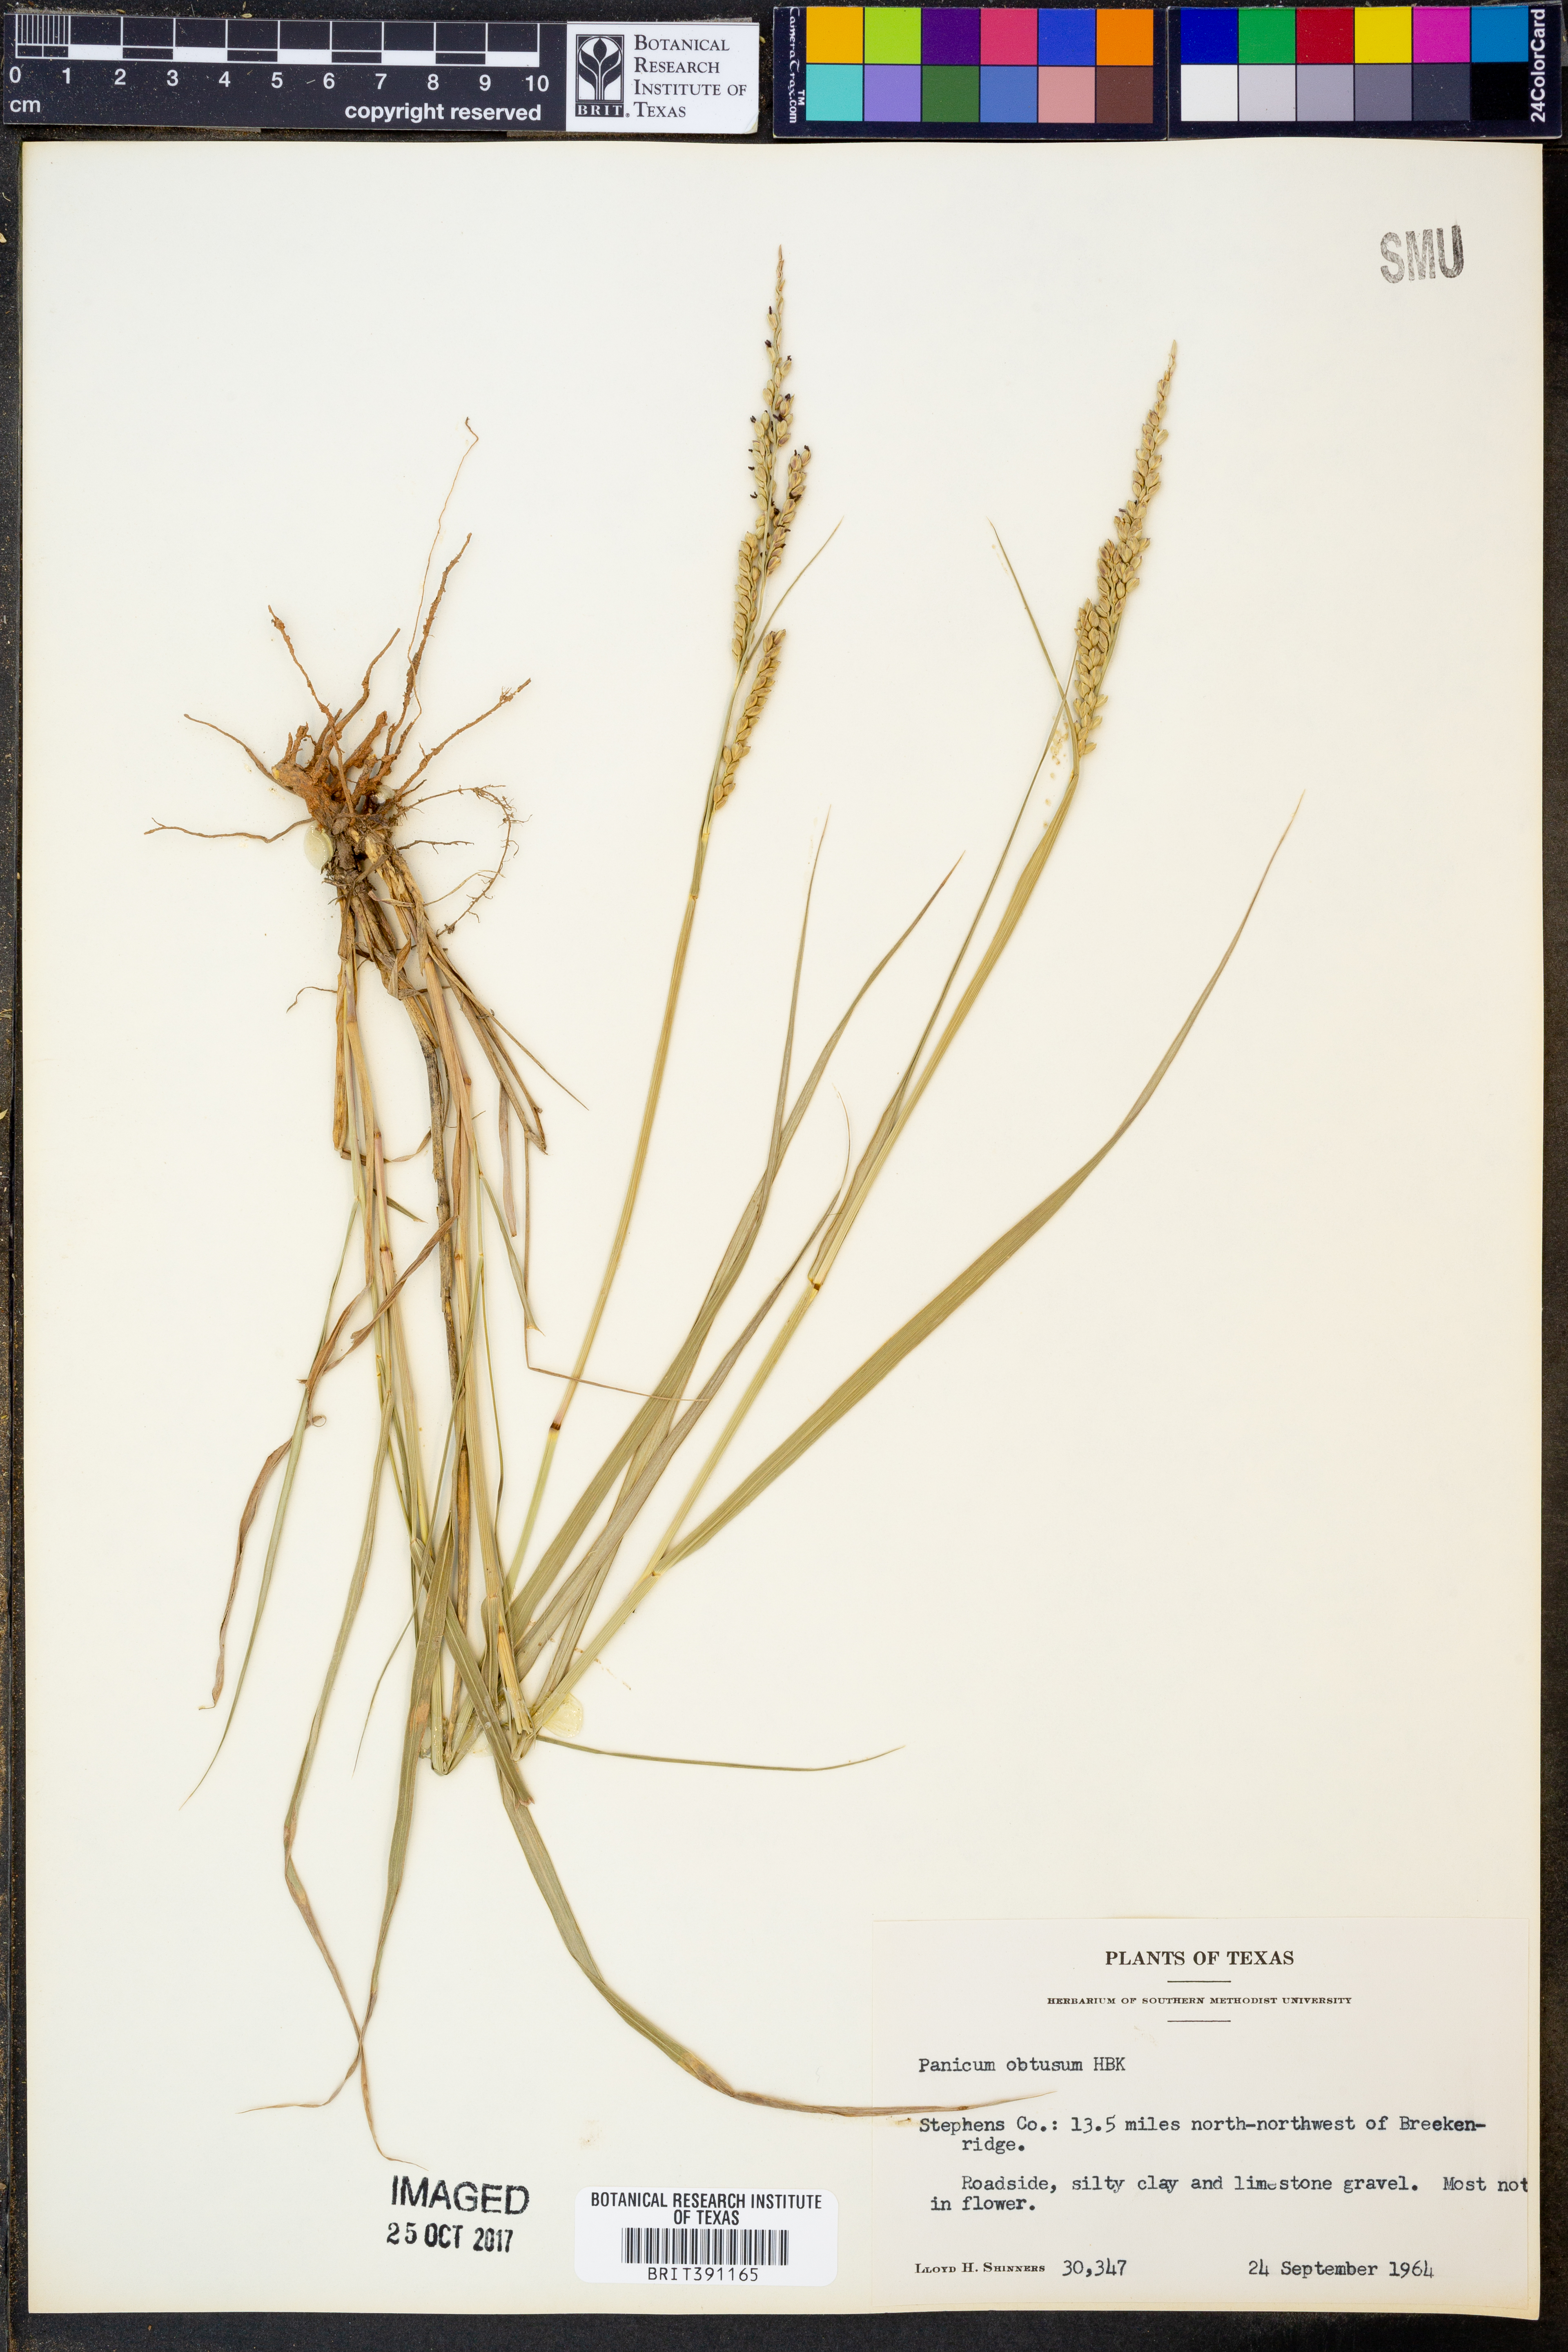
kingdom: Plantae
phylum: Tracheophyta
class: Liliopsida
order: Poales
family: Poaceae
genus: Hopia
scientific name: Hopia obtusa
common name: Vine-mesquite
